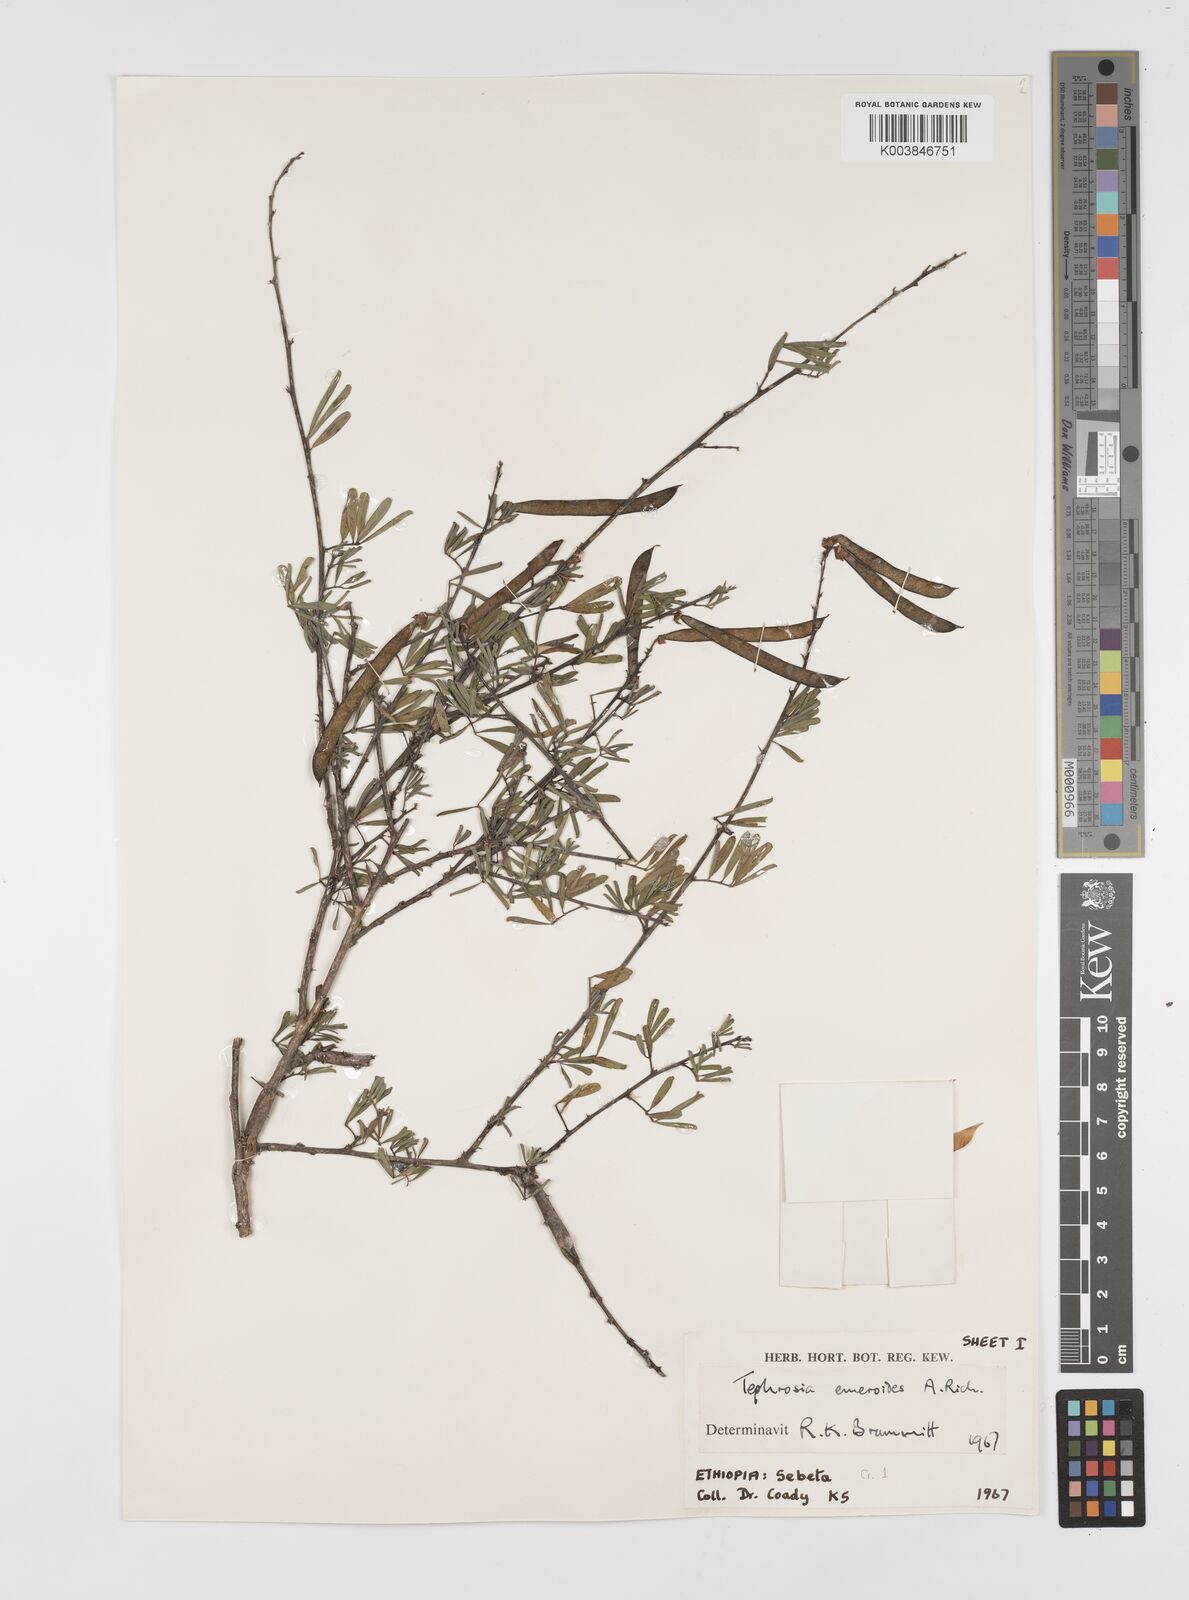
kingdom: Plantae
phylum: Tracheophyta
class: Magnoliopsida
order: Fabales
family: Fabaceae
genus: Tephrosia
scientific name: Tephrosia emeroides
